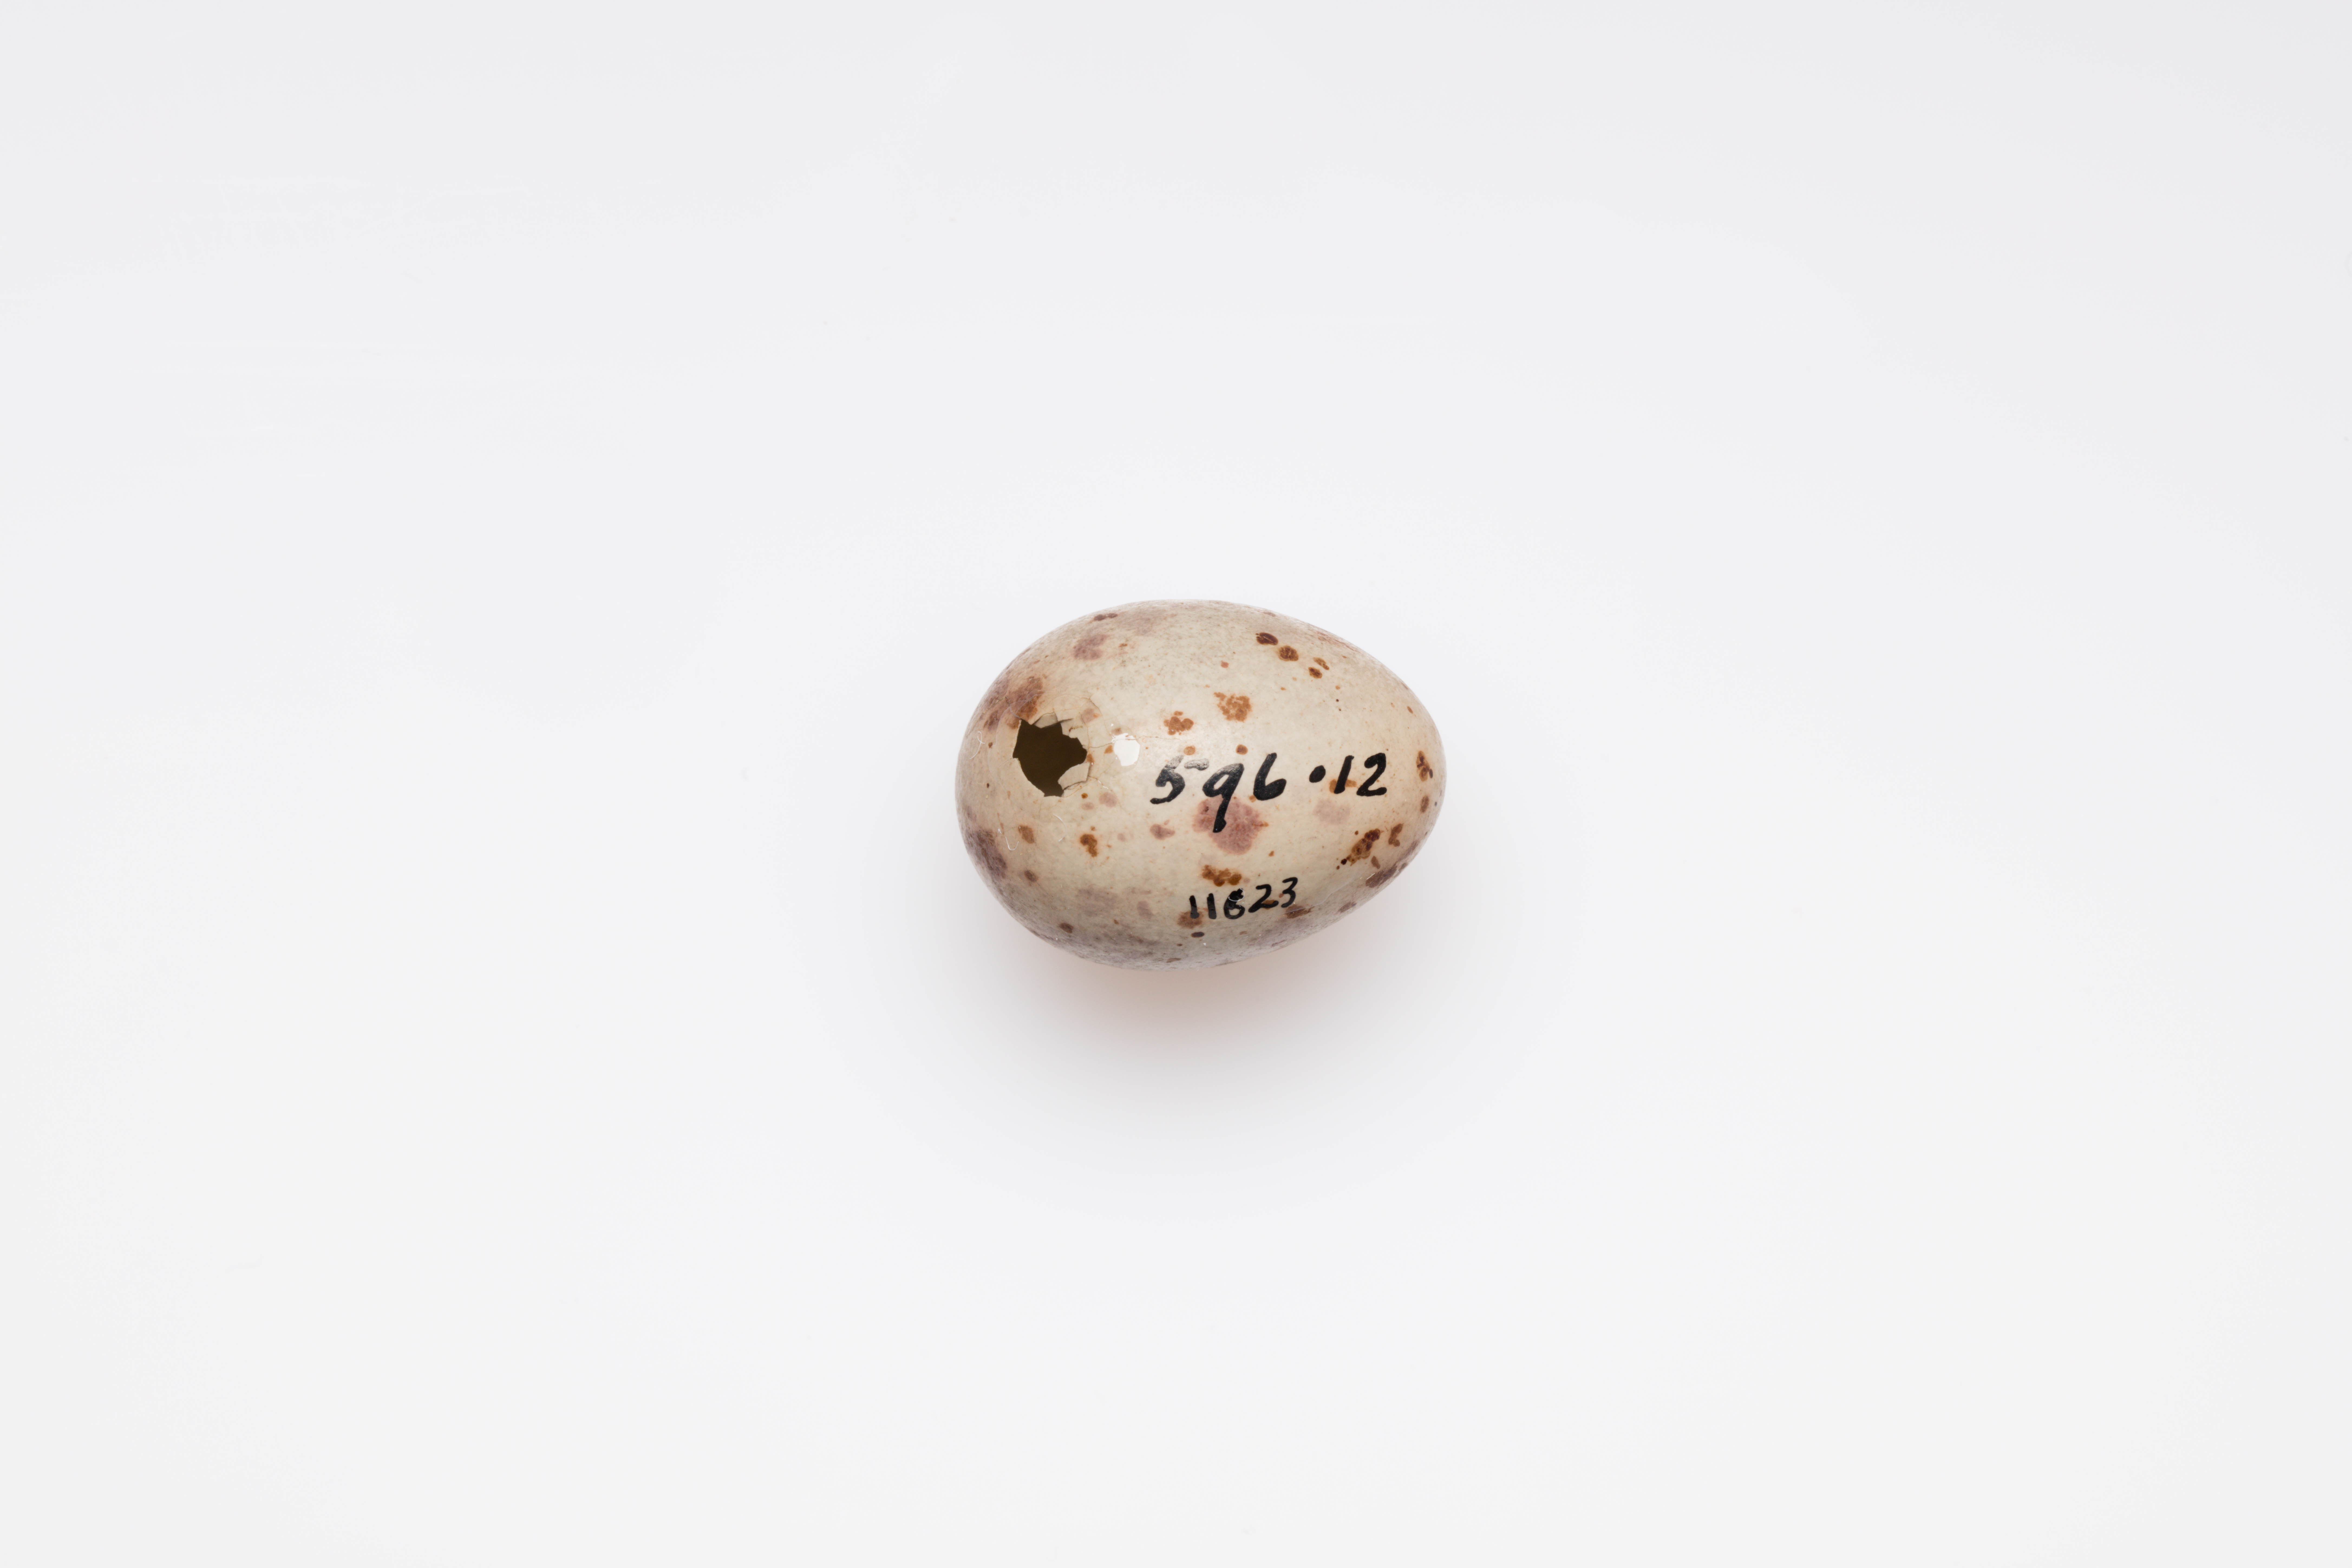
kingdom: Animalia
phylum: Chordata
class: Aves
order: Passeriformes
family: Turdidae
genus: Turdus
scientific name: Turdus viscivorus
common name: Mistle thrush
